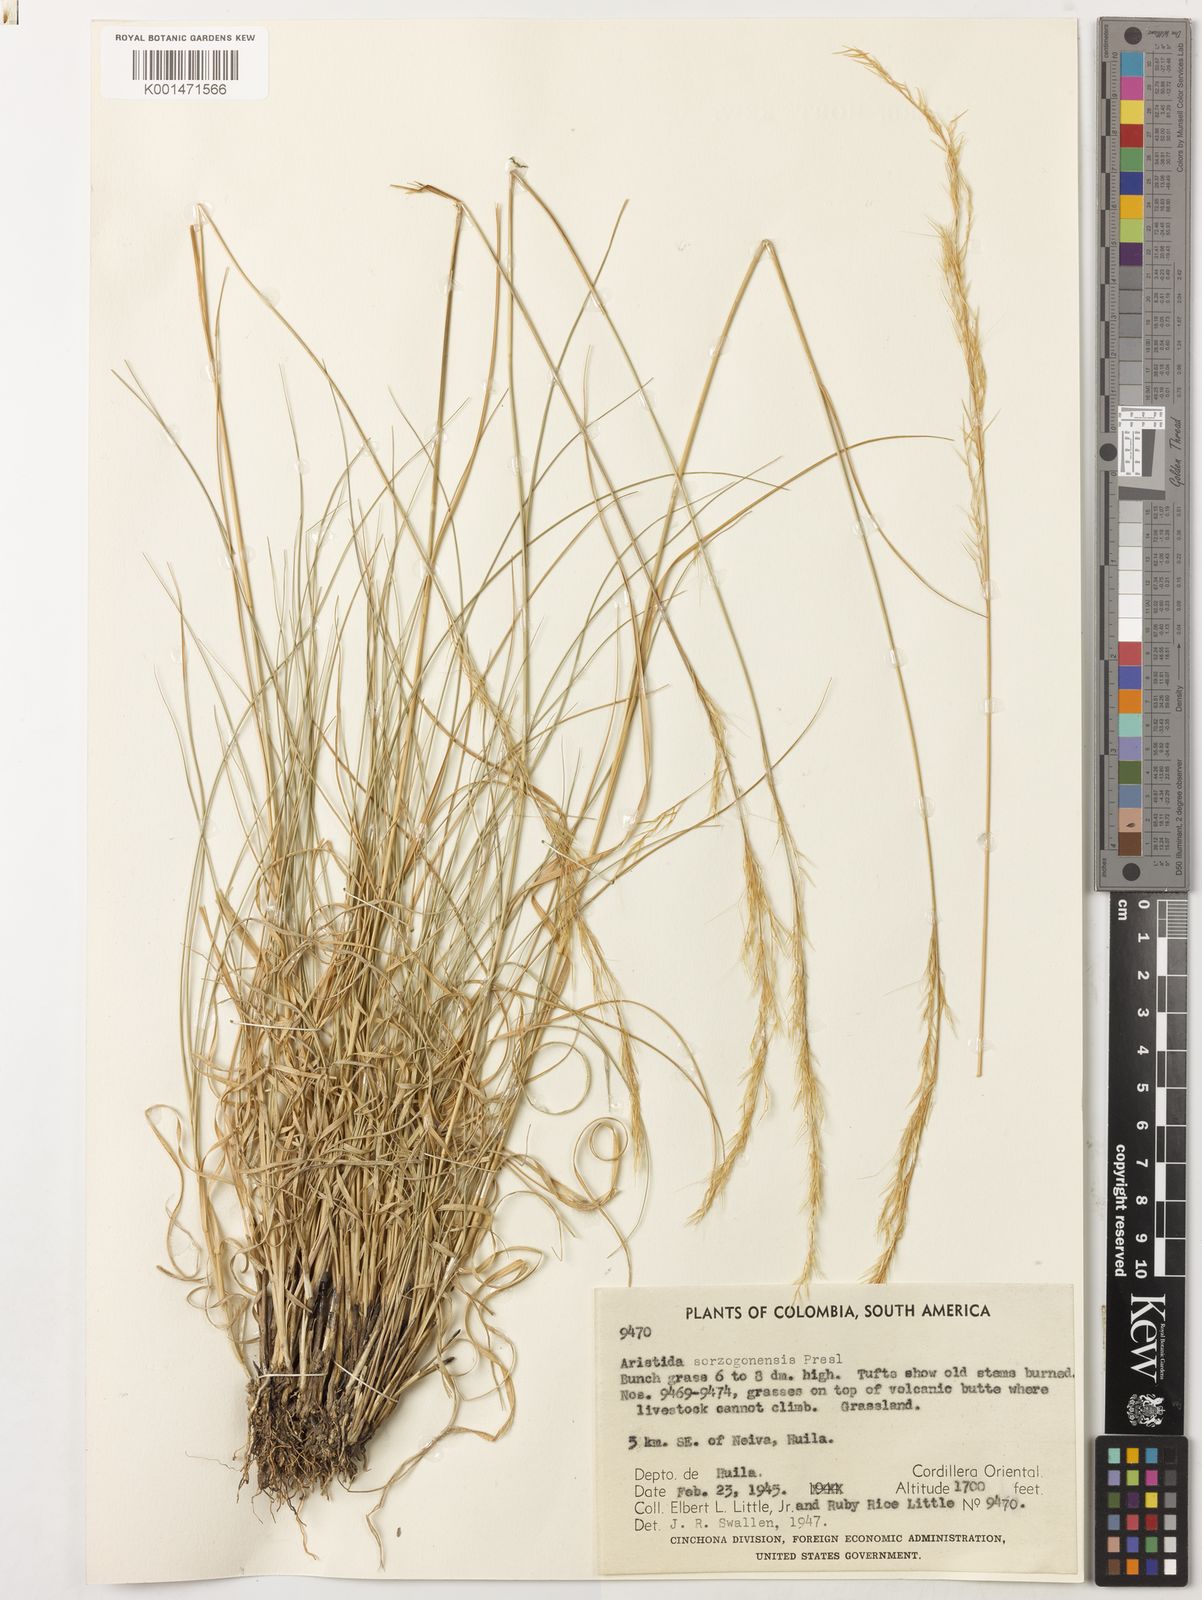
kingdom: Plantae
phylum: Tracheophyta
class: Liliopsida
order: Poales
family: Poaceae
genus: Aristida
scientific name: Aristida gibbosa
